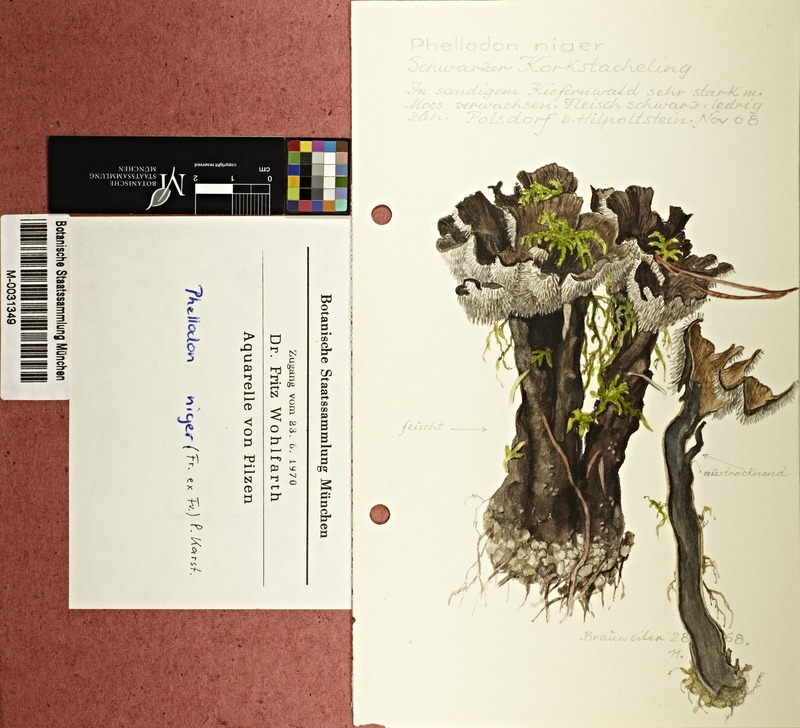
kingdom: Fungi
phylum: Basidiomycota
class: Agaricomycetes
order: Thelephorales
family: Thelephoraceae
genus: Phellodon
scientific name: Phellodon niger
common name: Black tooth
